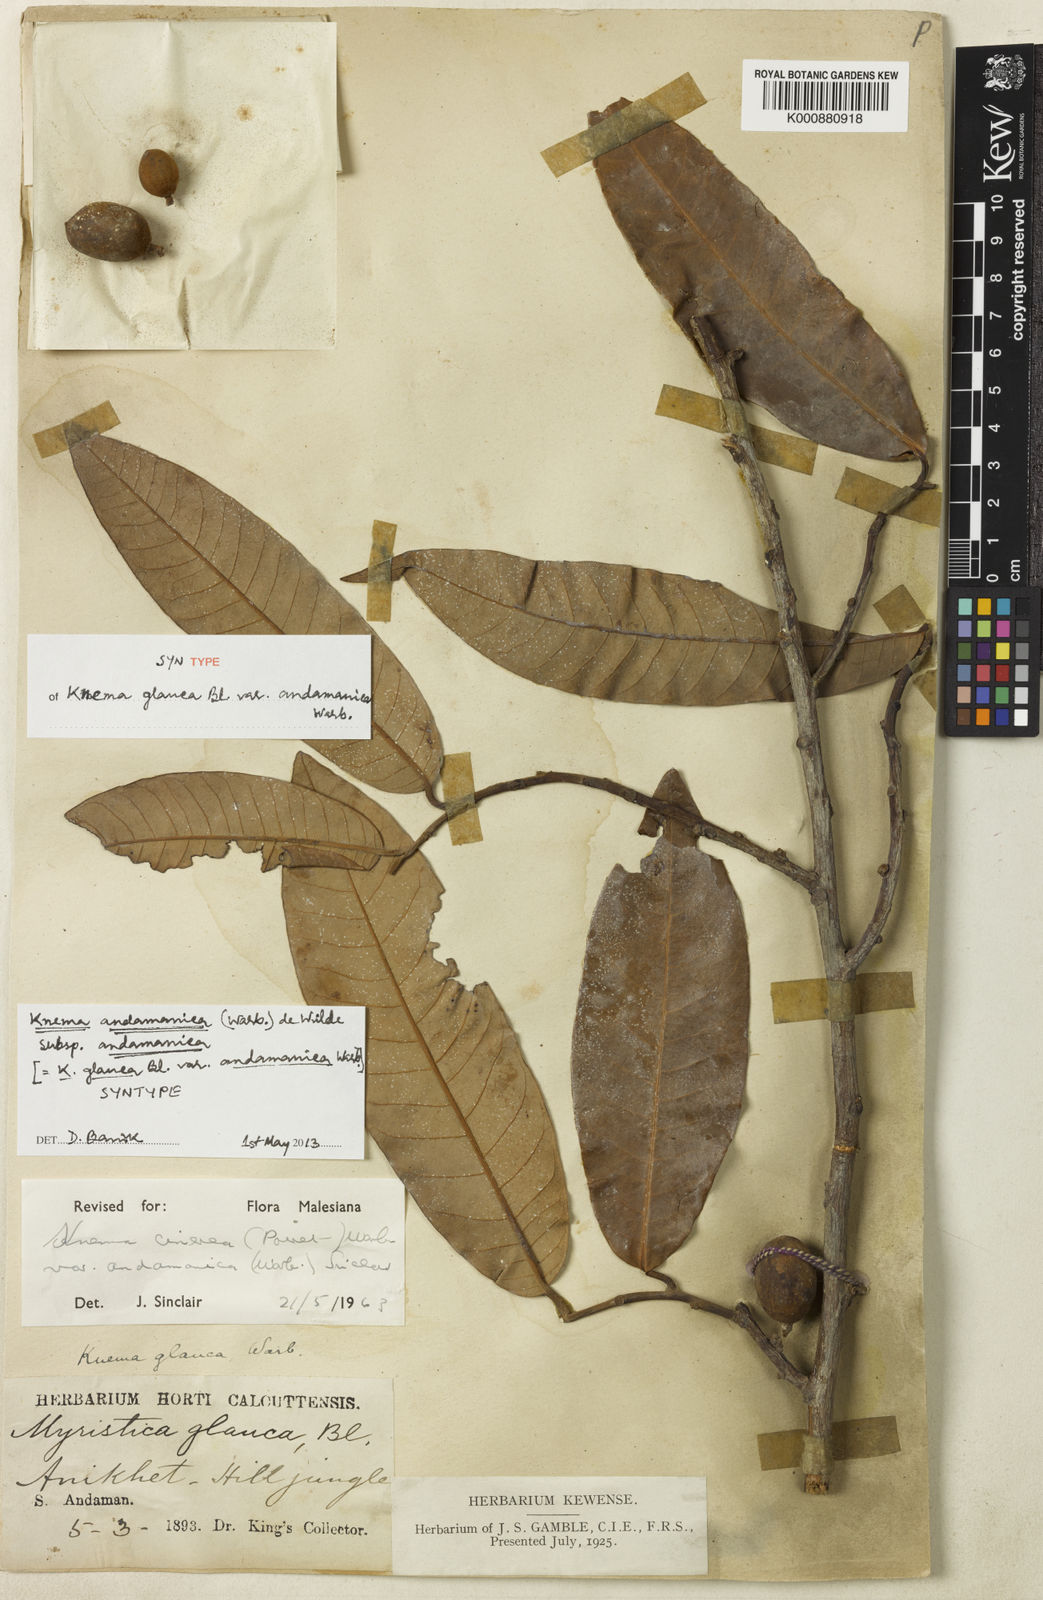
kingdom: Plantae
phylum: Tracheophyta
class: Magnoliopsida
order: Magnoliales
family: Myristicaceae
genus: Knema
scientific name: Knema andamanica
